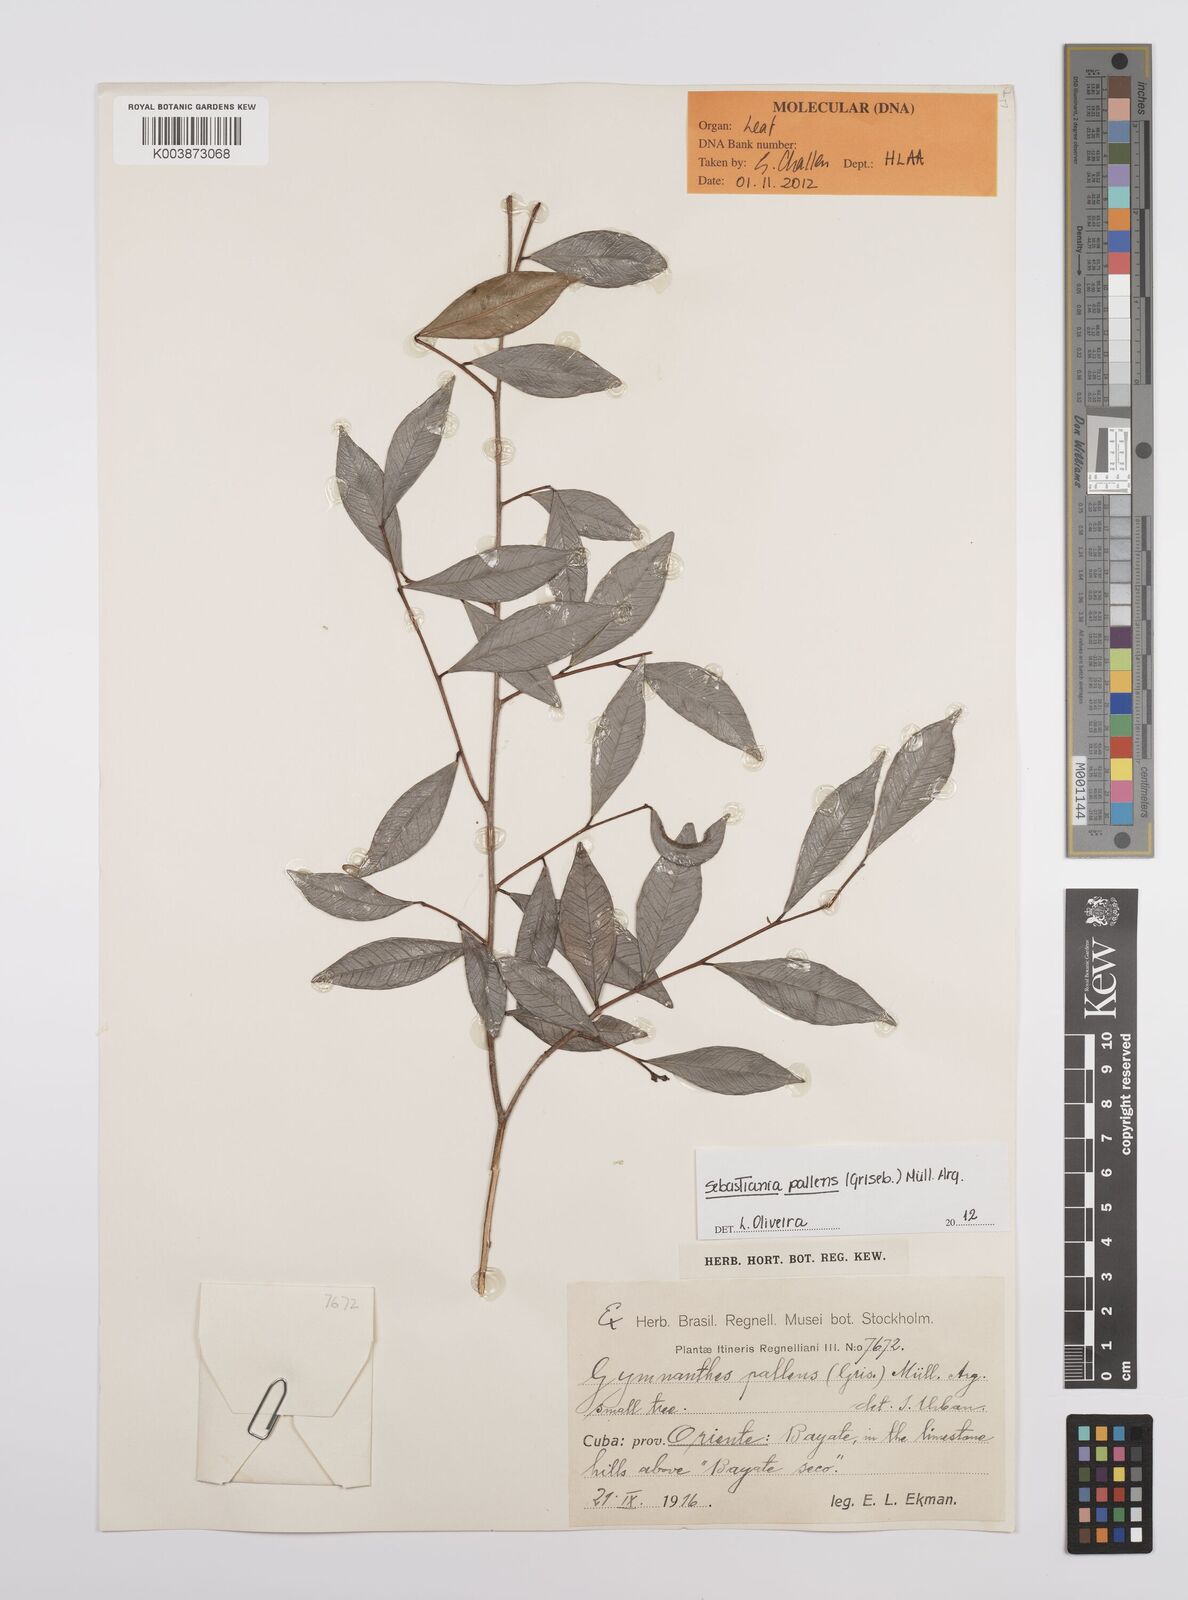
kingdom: Plantae
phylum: Tracheophyta
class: Magnoliopsida
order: Malpighiales
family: Euphorbiaceae
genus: Gymnanthes
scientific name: Gymnanthes pallens
